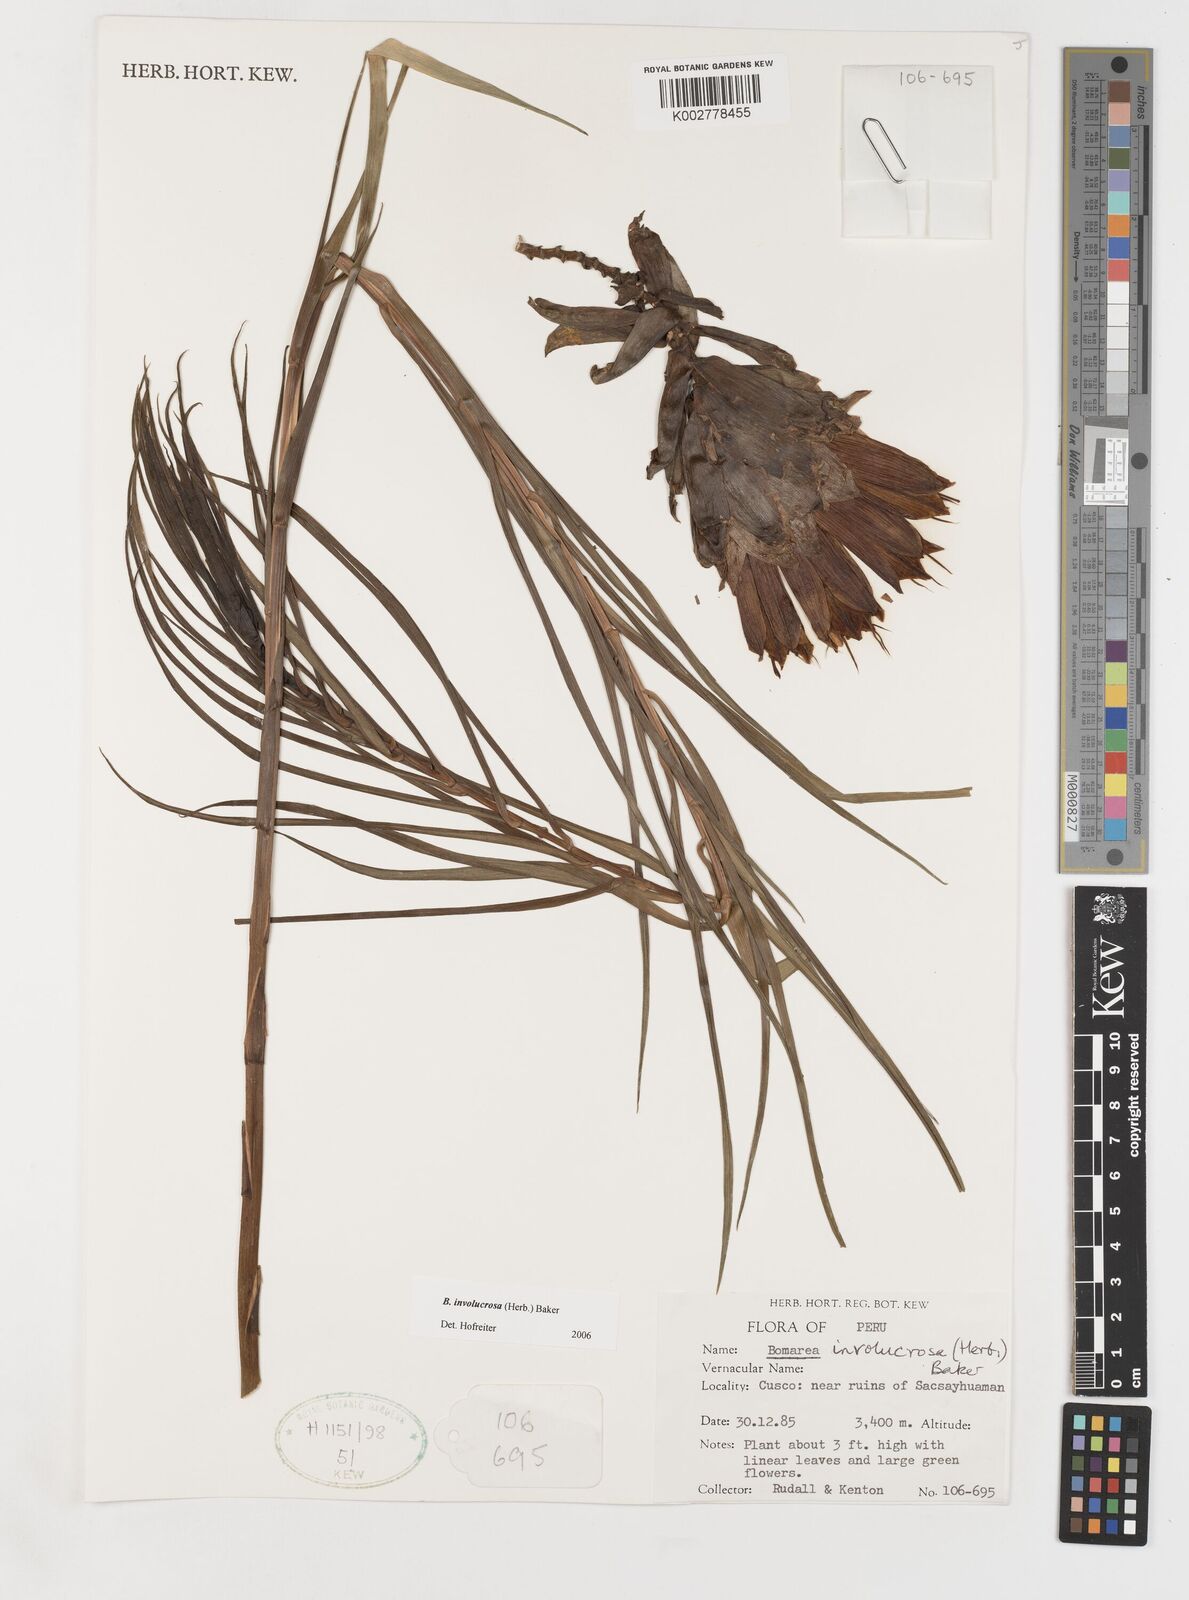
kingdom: Plantae
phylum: Tracheophyta
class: Liliopsida
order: Liliales
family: Alstroemeriaceae
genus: Bomarea
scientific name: Bomarea involucrosa
